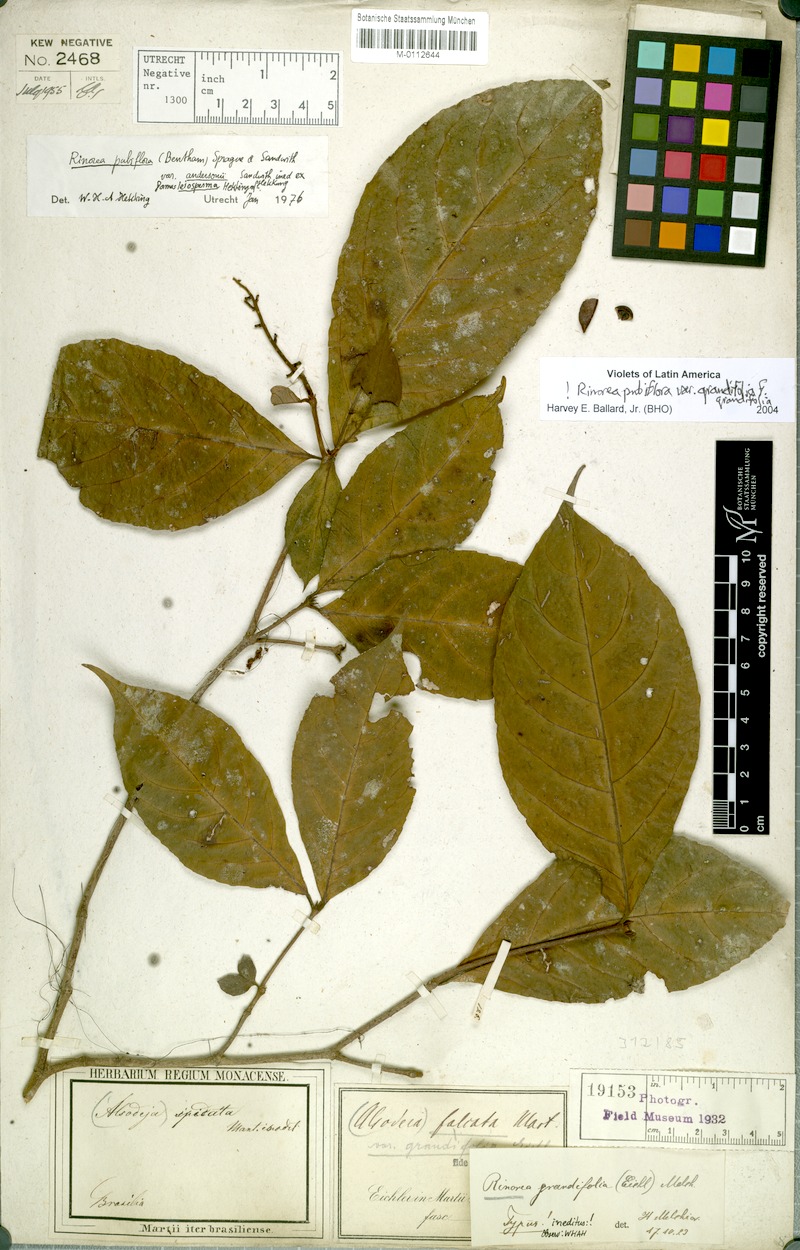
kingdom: Plantae
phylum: Tracheophyta
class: Magnoliopsida
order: Malpighiales
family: Violaceae
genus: Rinorea
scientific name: Rinorea pubiflora
